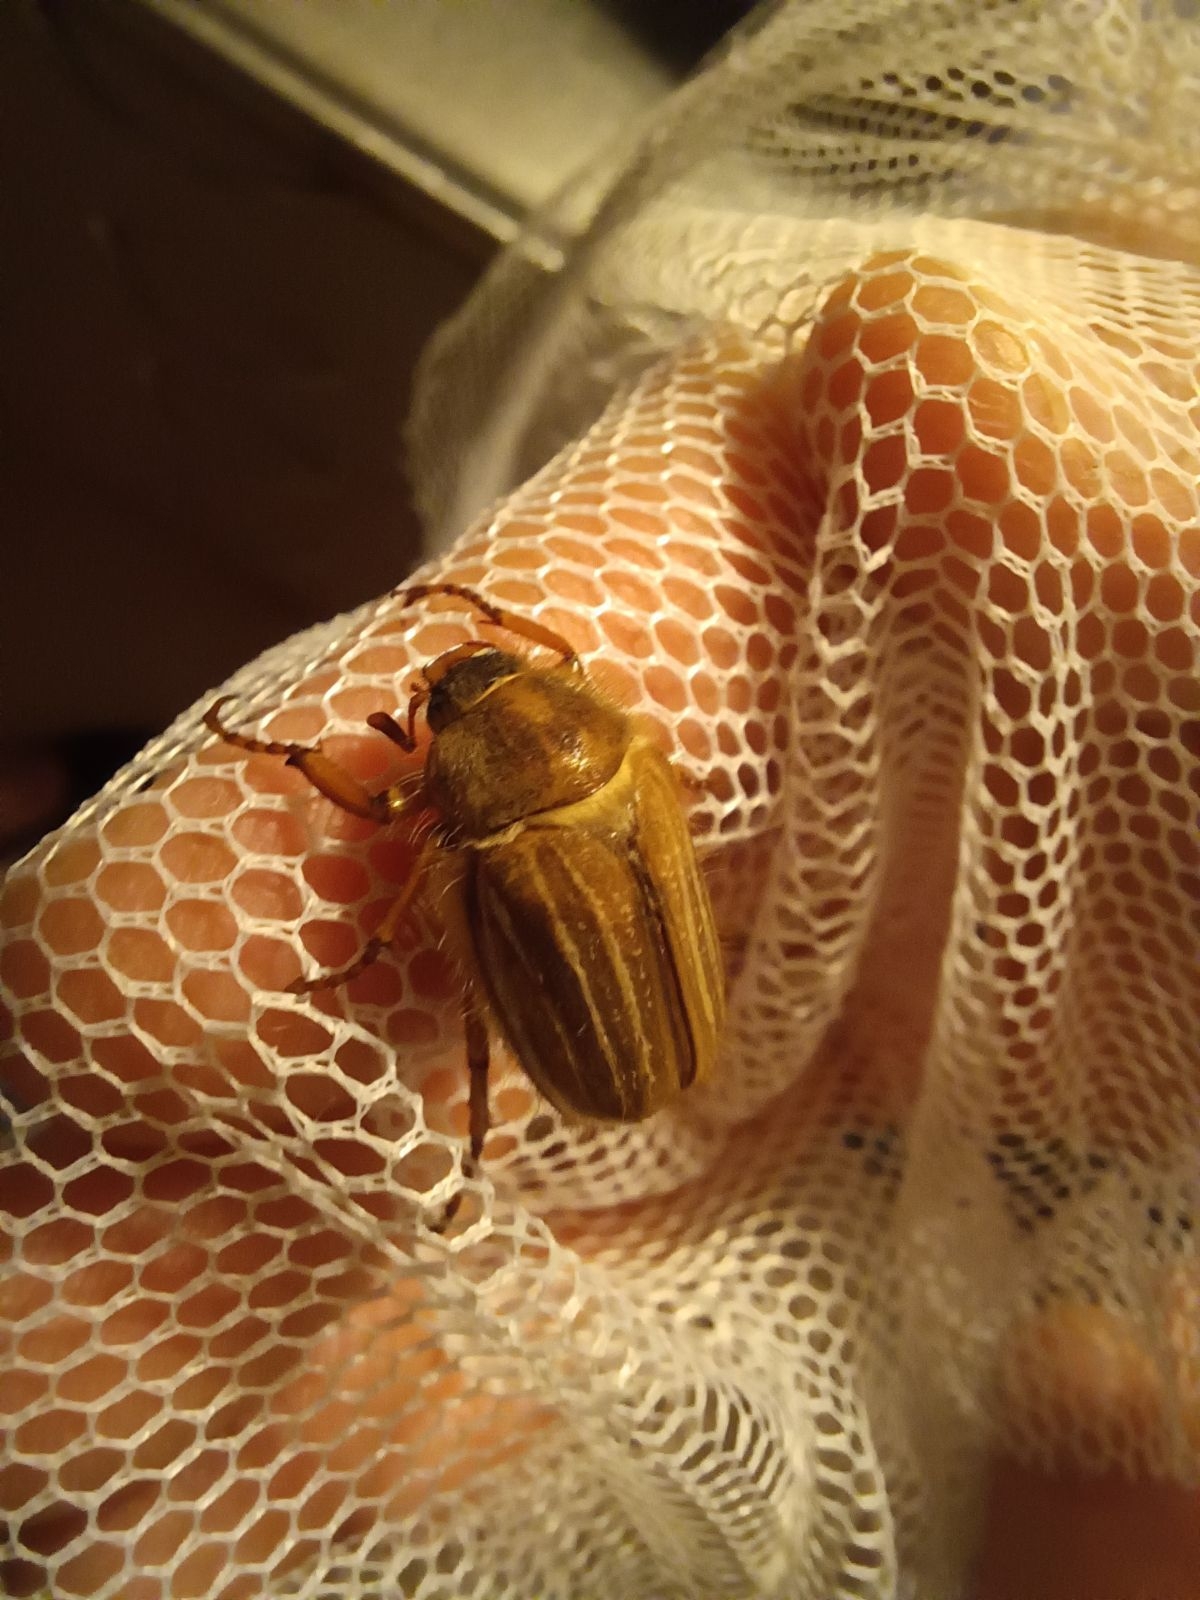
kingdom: Animalia
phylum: Arthropoda
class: Insecta
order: Coleoptera
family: Scarabaeidae
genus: Amphimallon
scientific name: Amphimallon solstitiale
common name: Sankthansoldenborre
